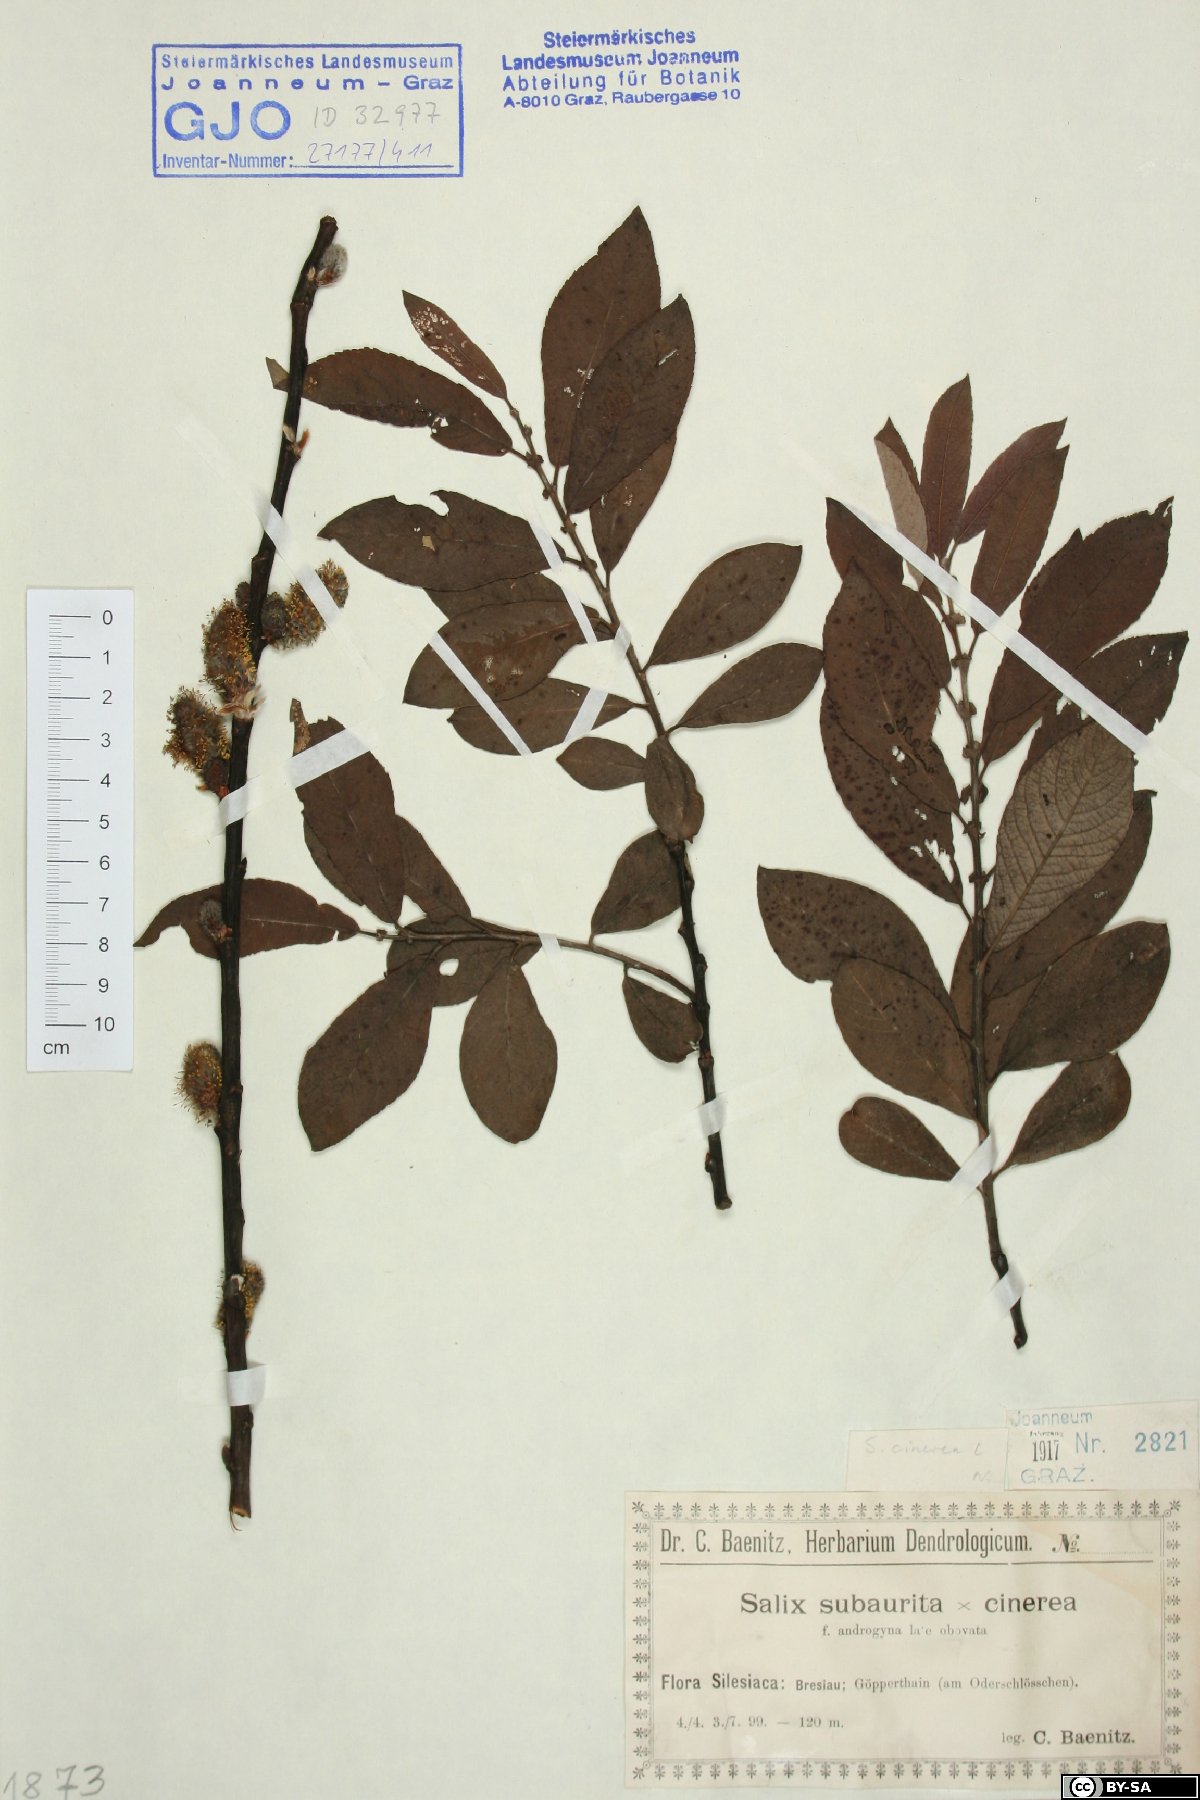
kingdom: Plantae
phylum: Tracheophyta
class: Magnoliopsida
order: Malpighiales
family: Salicaceae
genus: Salix
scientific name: Salix cinerea
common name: Common sallow
